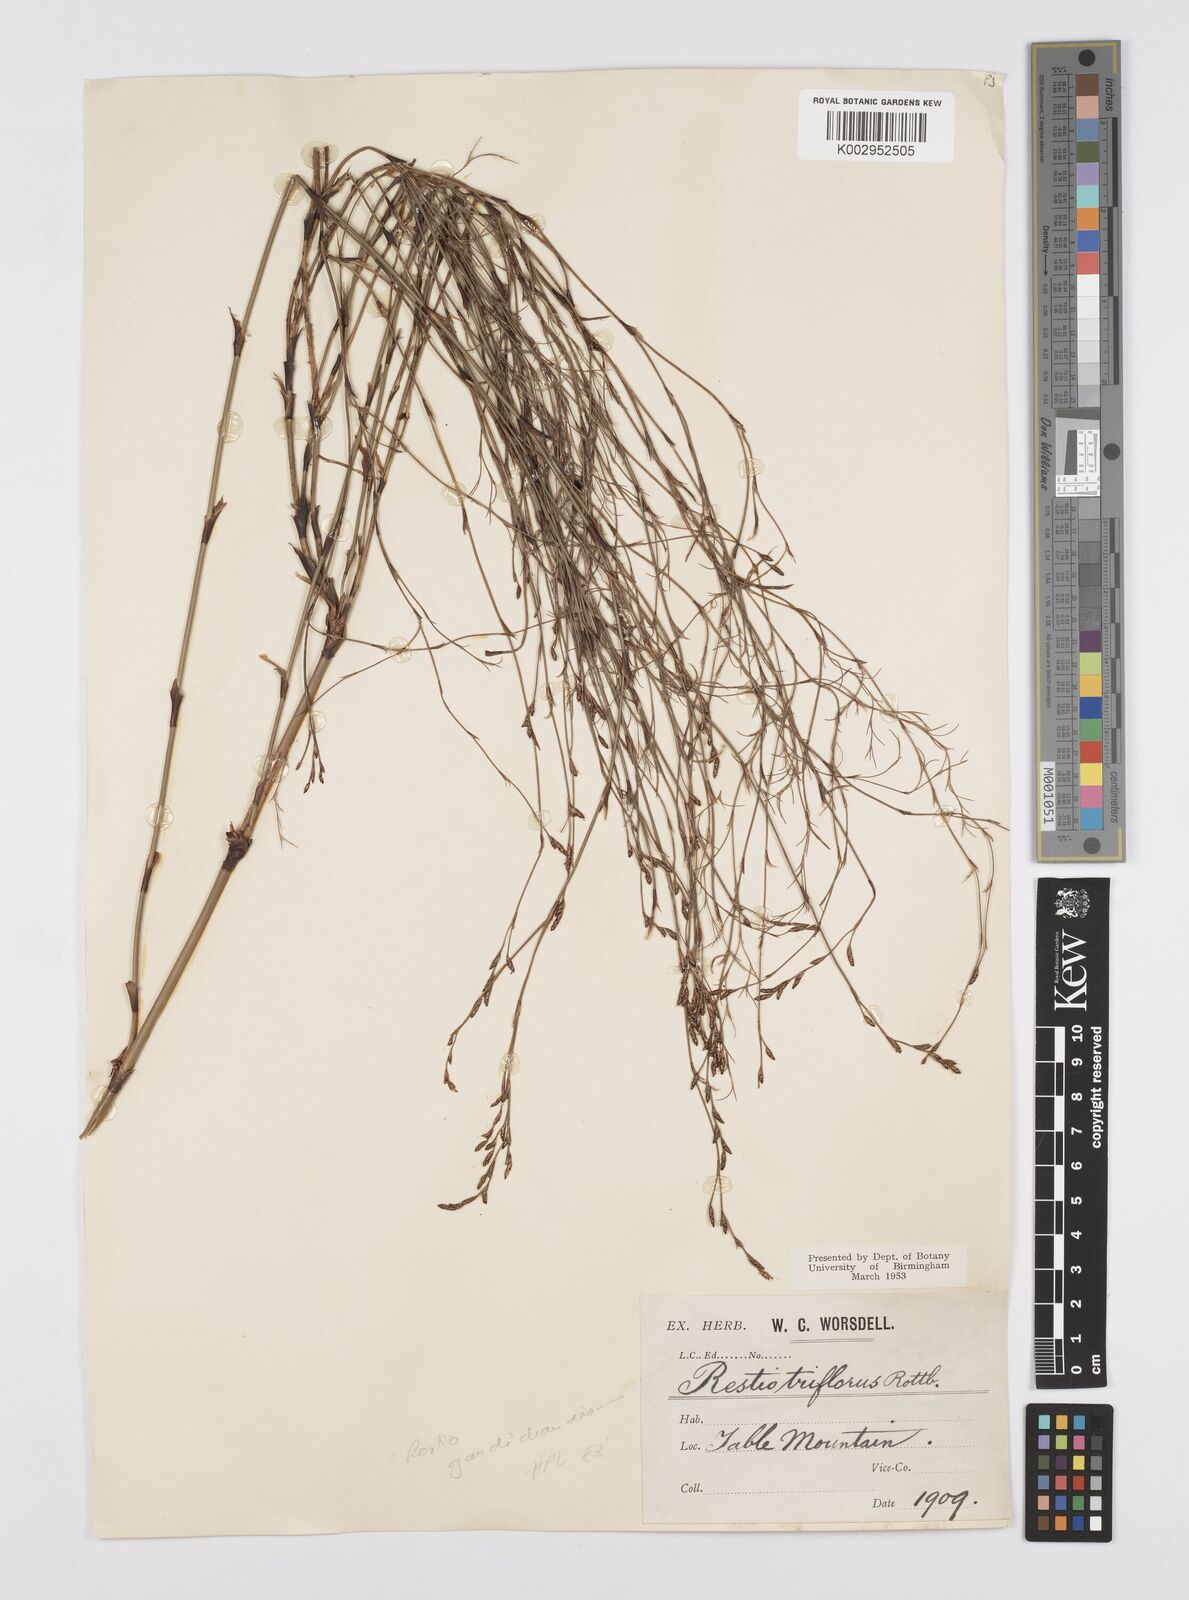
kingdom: Plantae
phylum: Tracheophyta
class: Liliopsida
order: Poales
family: Restionaceae
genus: Restio
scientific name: Restio gaudichaudianus
